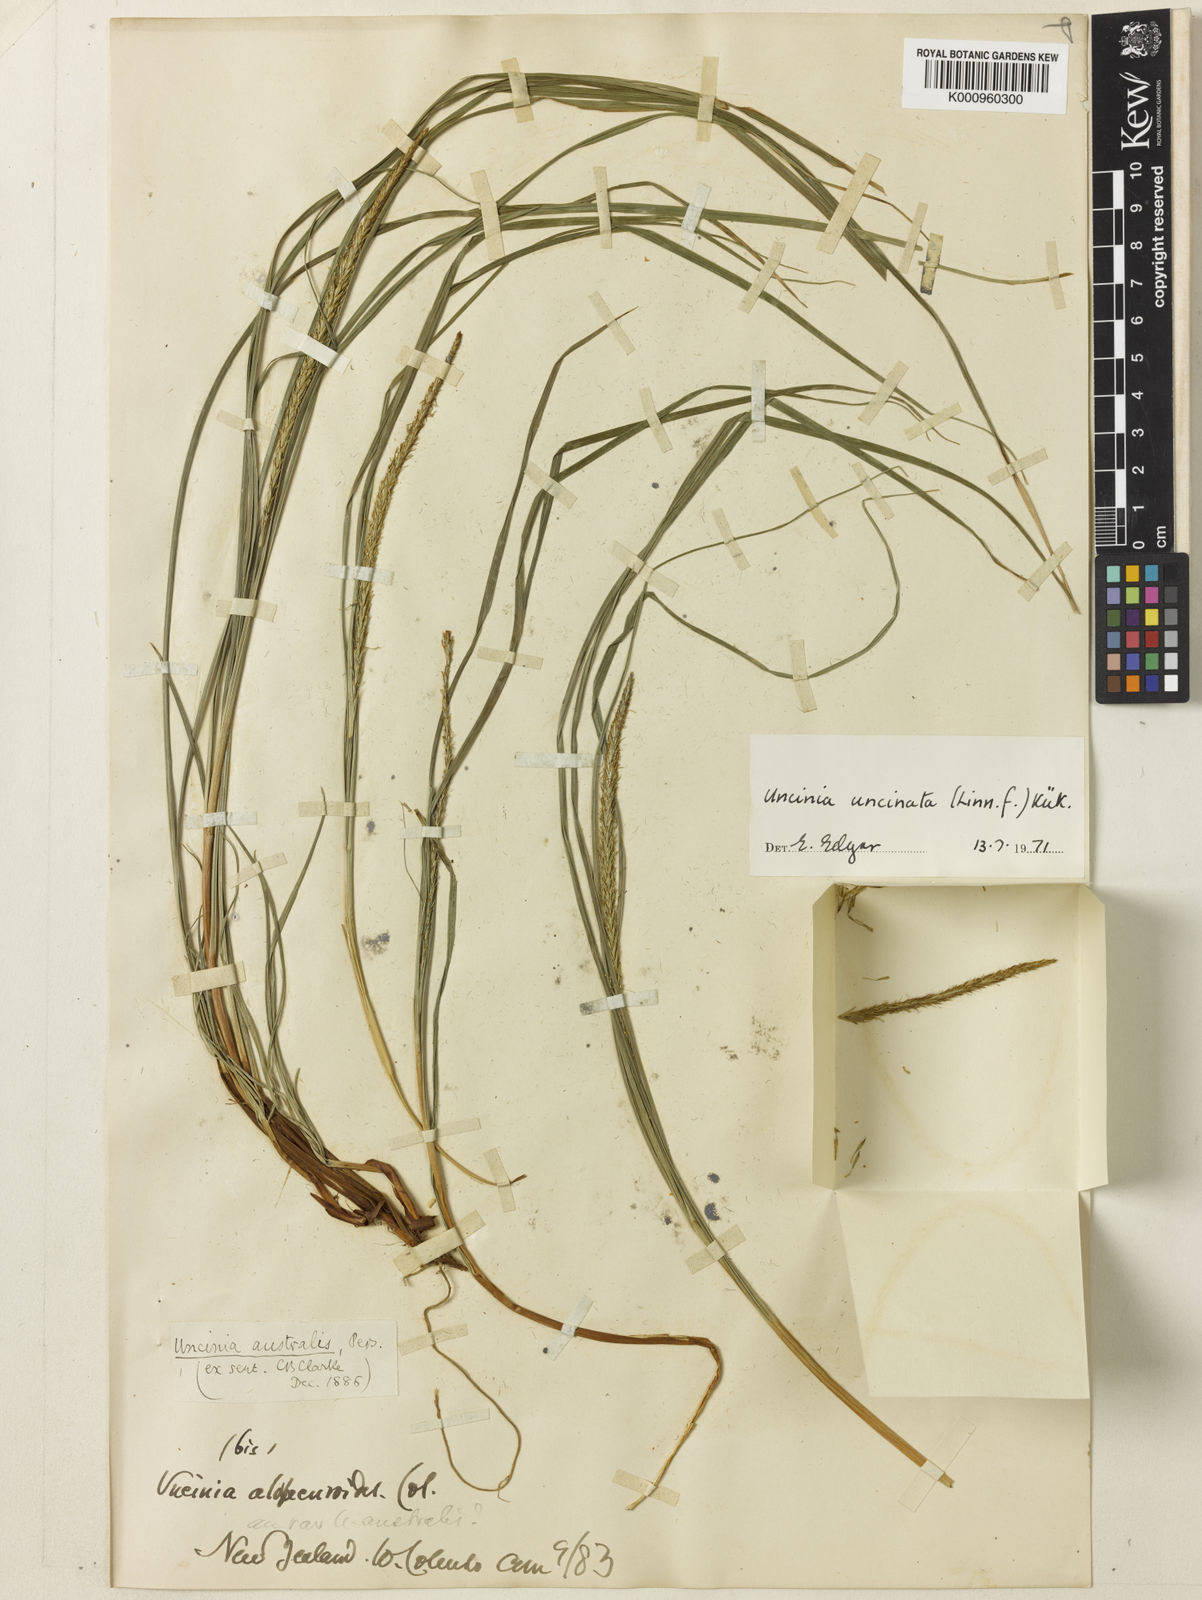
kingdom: Fungi
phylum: Ascomycota
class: Leotiomycetes
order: Helotiales
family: Hamatocanthoscyphaceae
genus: Uncinia
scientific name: Uncinia
